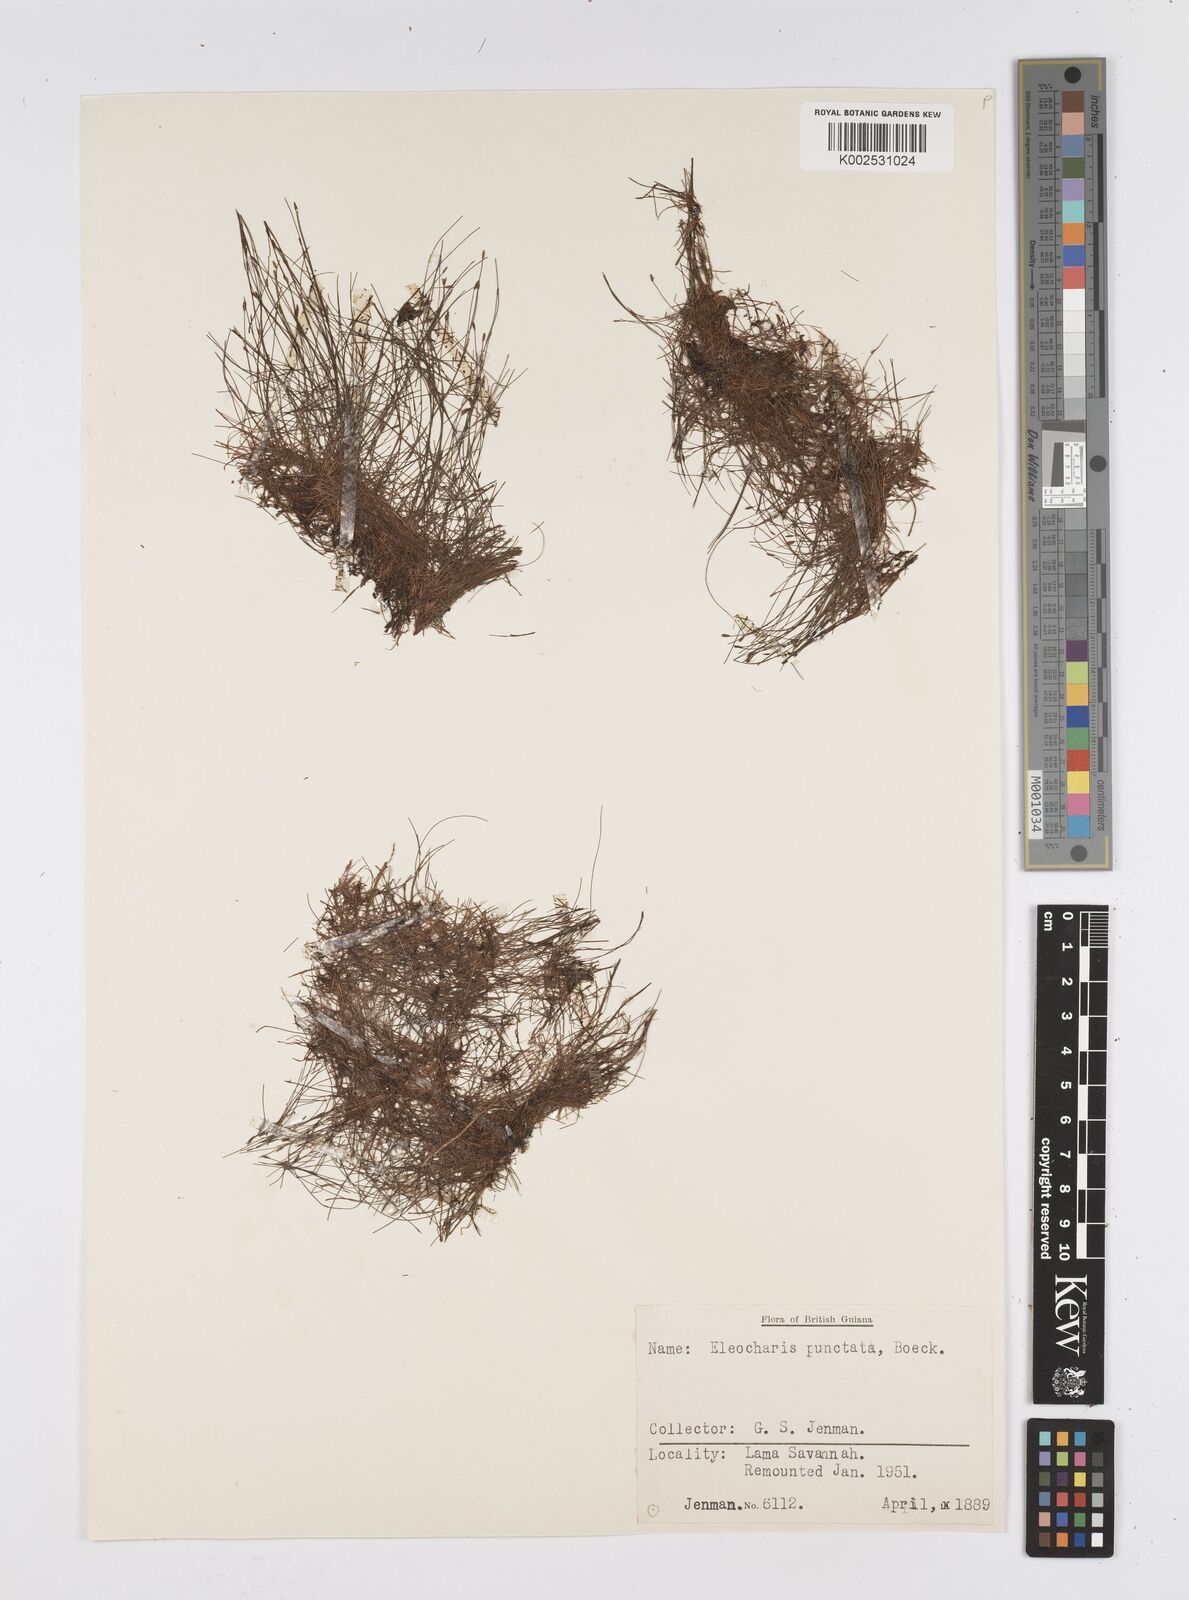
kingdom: Plantae
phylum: Tracheophyta
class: Liliopsida
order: Poales
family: Cyperaceae
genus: Eleocharis
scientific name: Eleocharis nana
